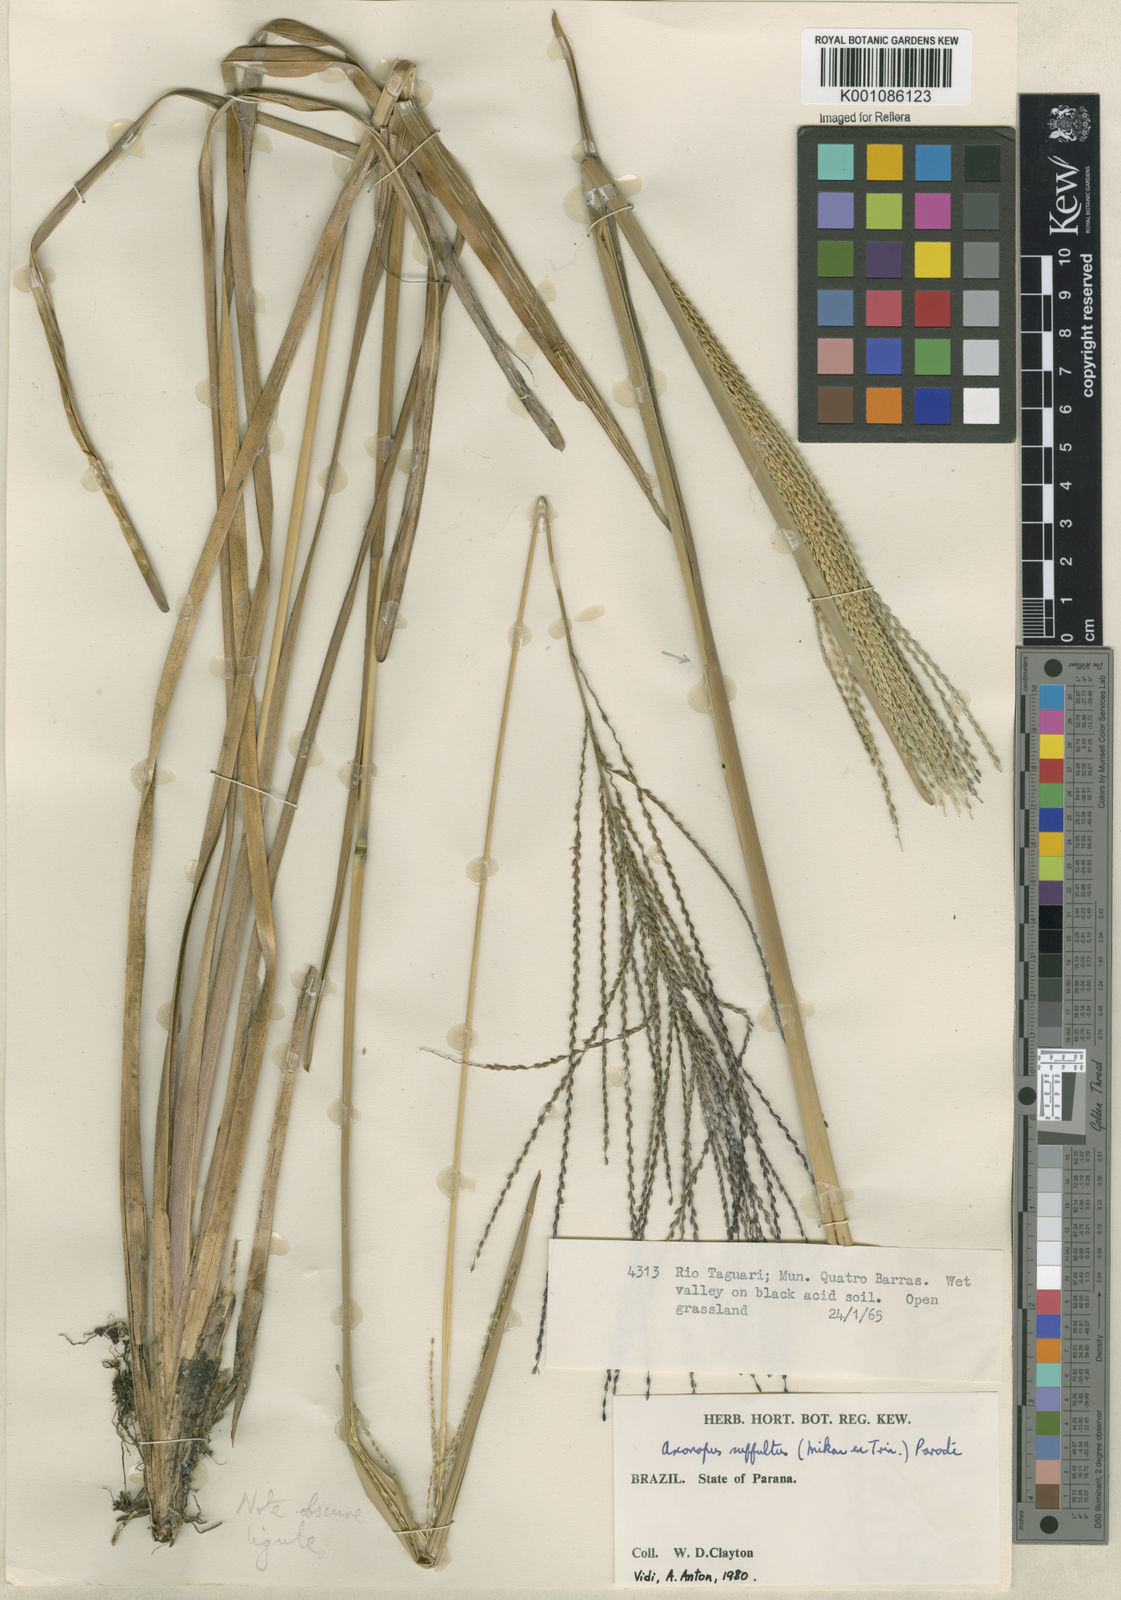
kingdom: Plantae
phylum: Tracheophyta
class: Liliopsida
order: Poales
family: Poaceae
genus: Axonopus
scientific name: Axonopus suffultus
